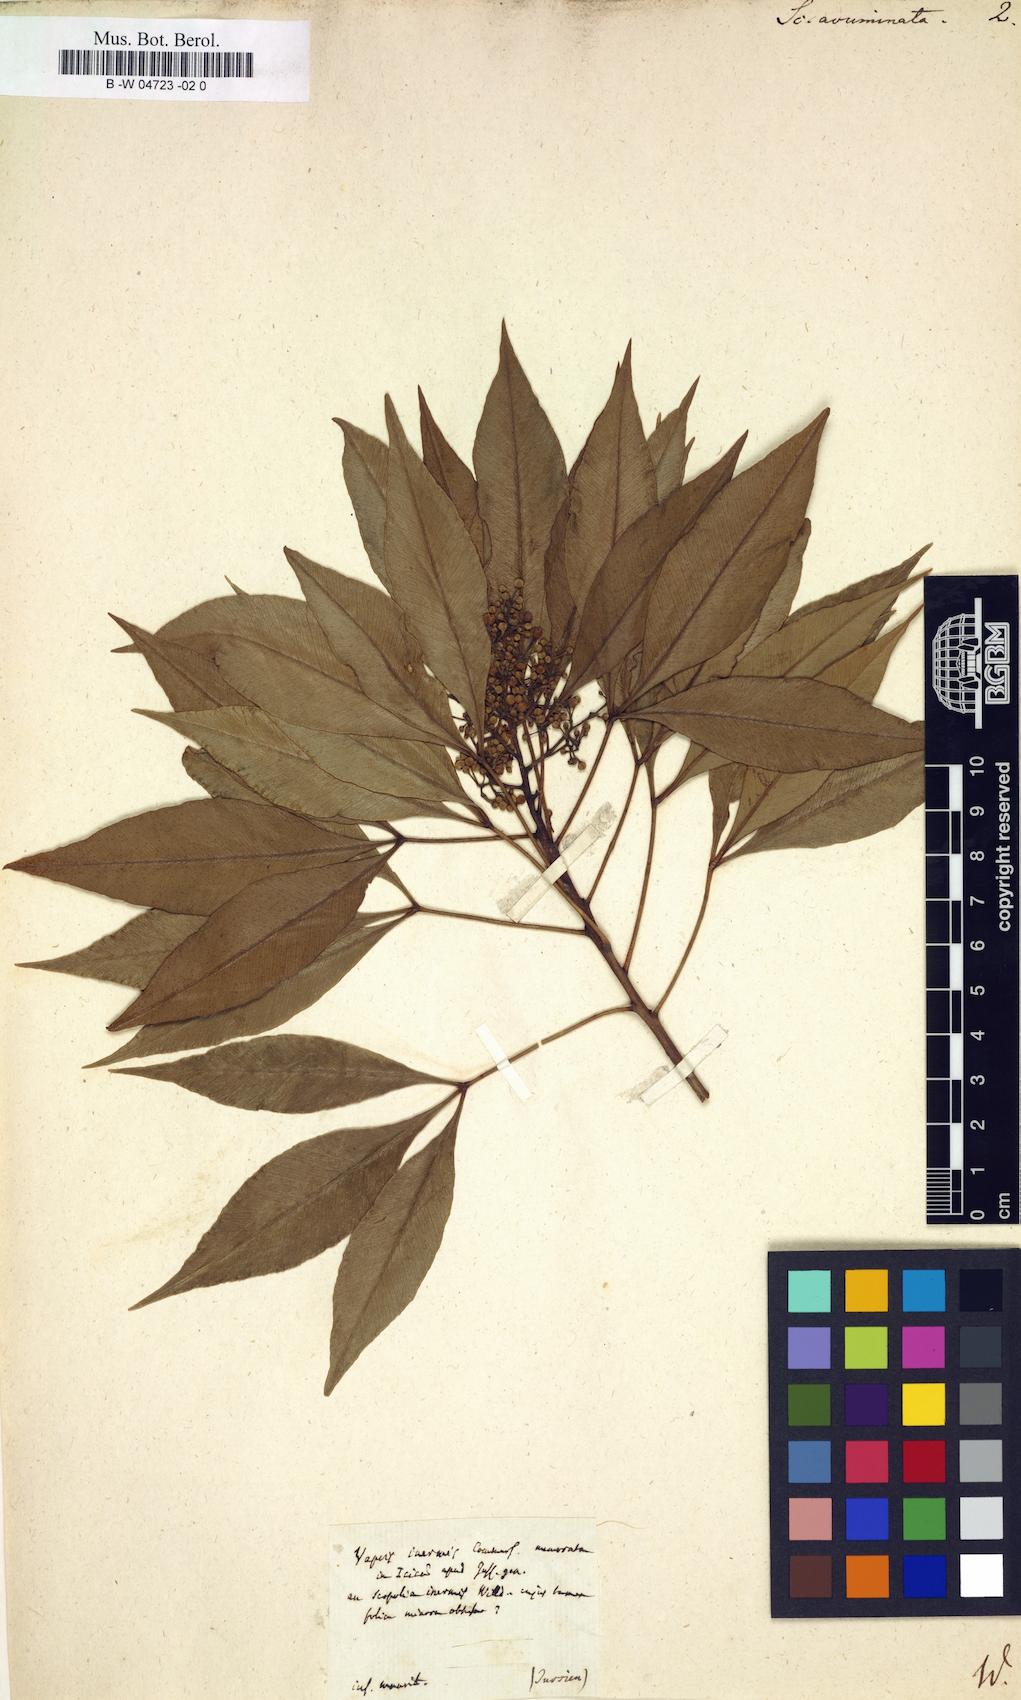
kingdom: Plantae
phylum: Tracheophyta
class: Magnoliopsida
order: Solanales
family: Solanaceae
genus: Scopolia
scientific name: Scopolia
